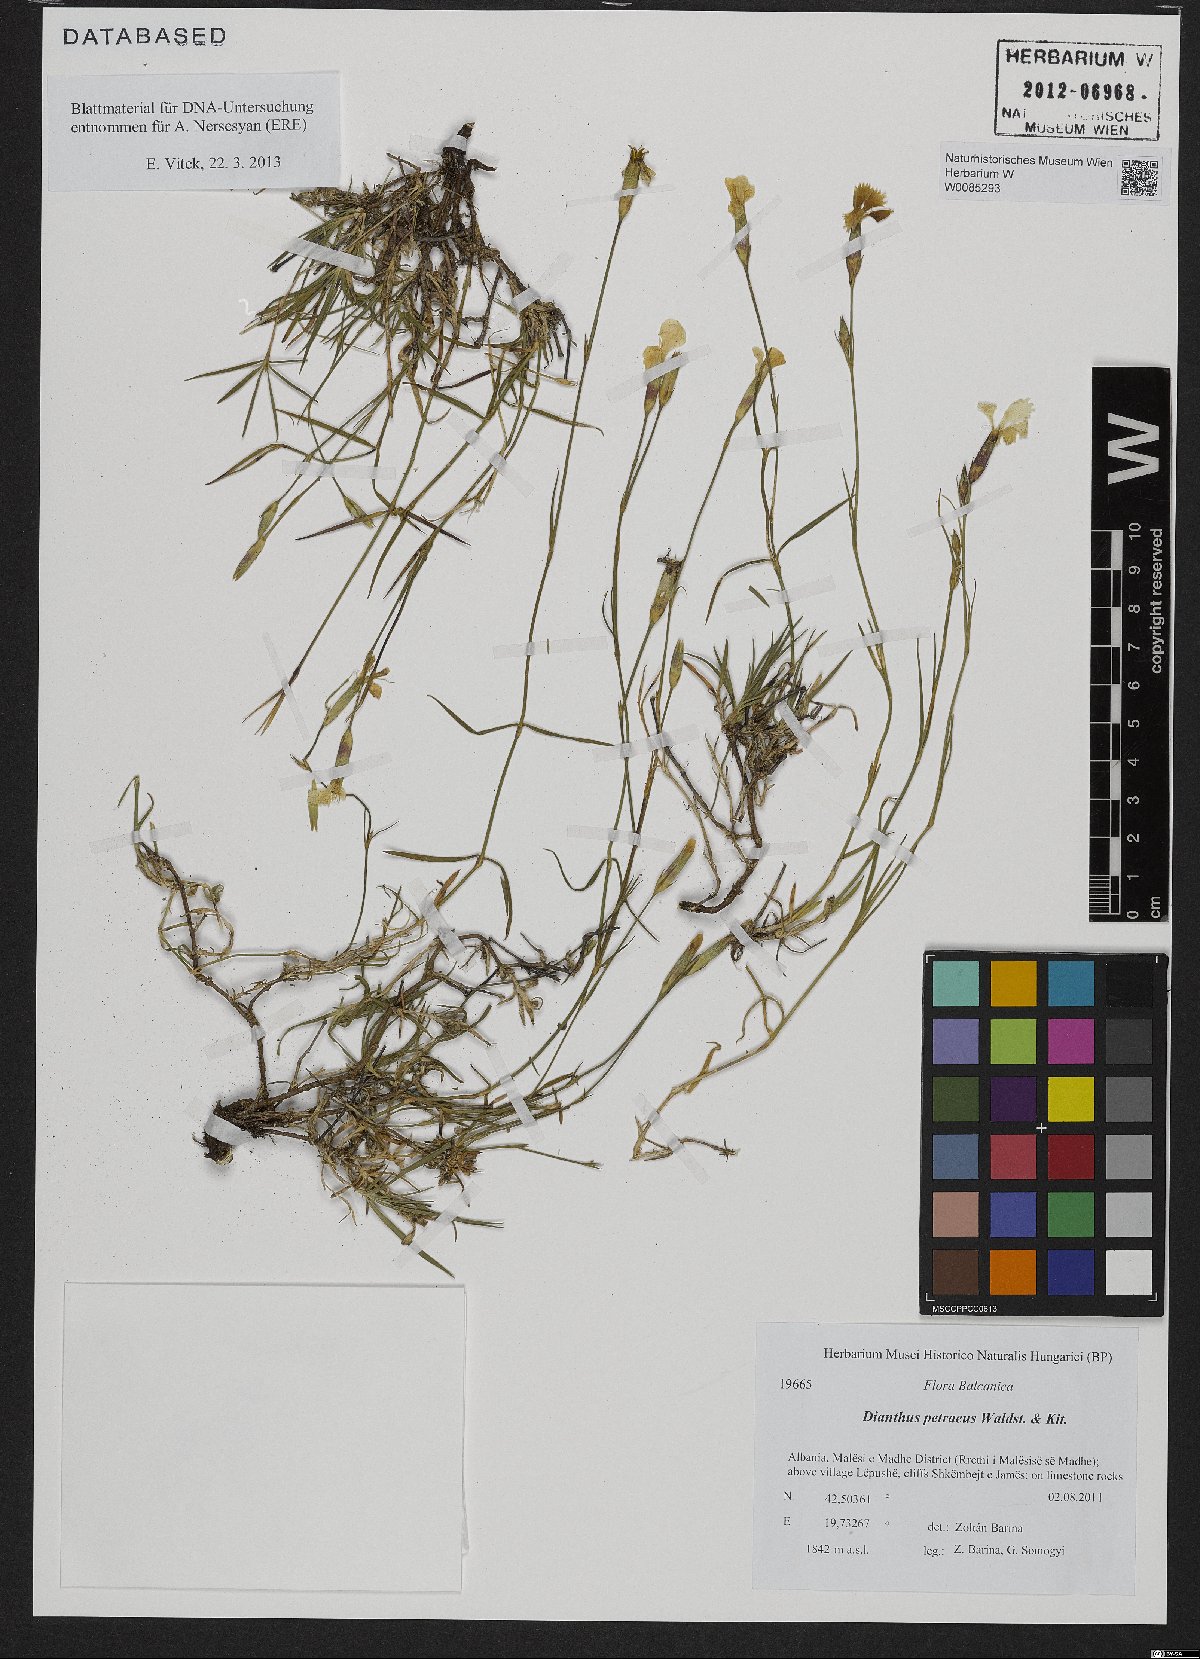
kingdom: Plantae
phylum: Tracheophyta
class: Magnoliopsida
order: Caryophyllales
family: Caryophyllaceae
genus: Dianthus
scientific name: Dianthus petraeus
